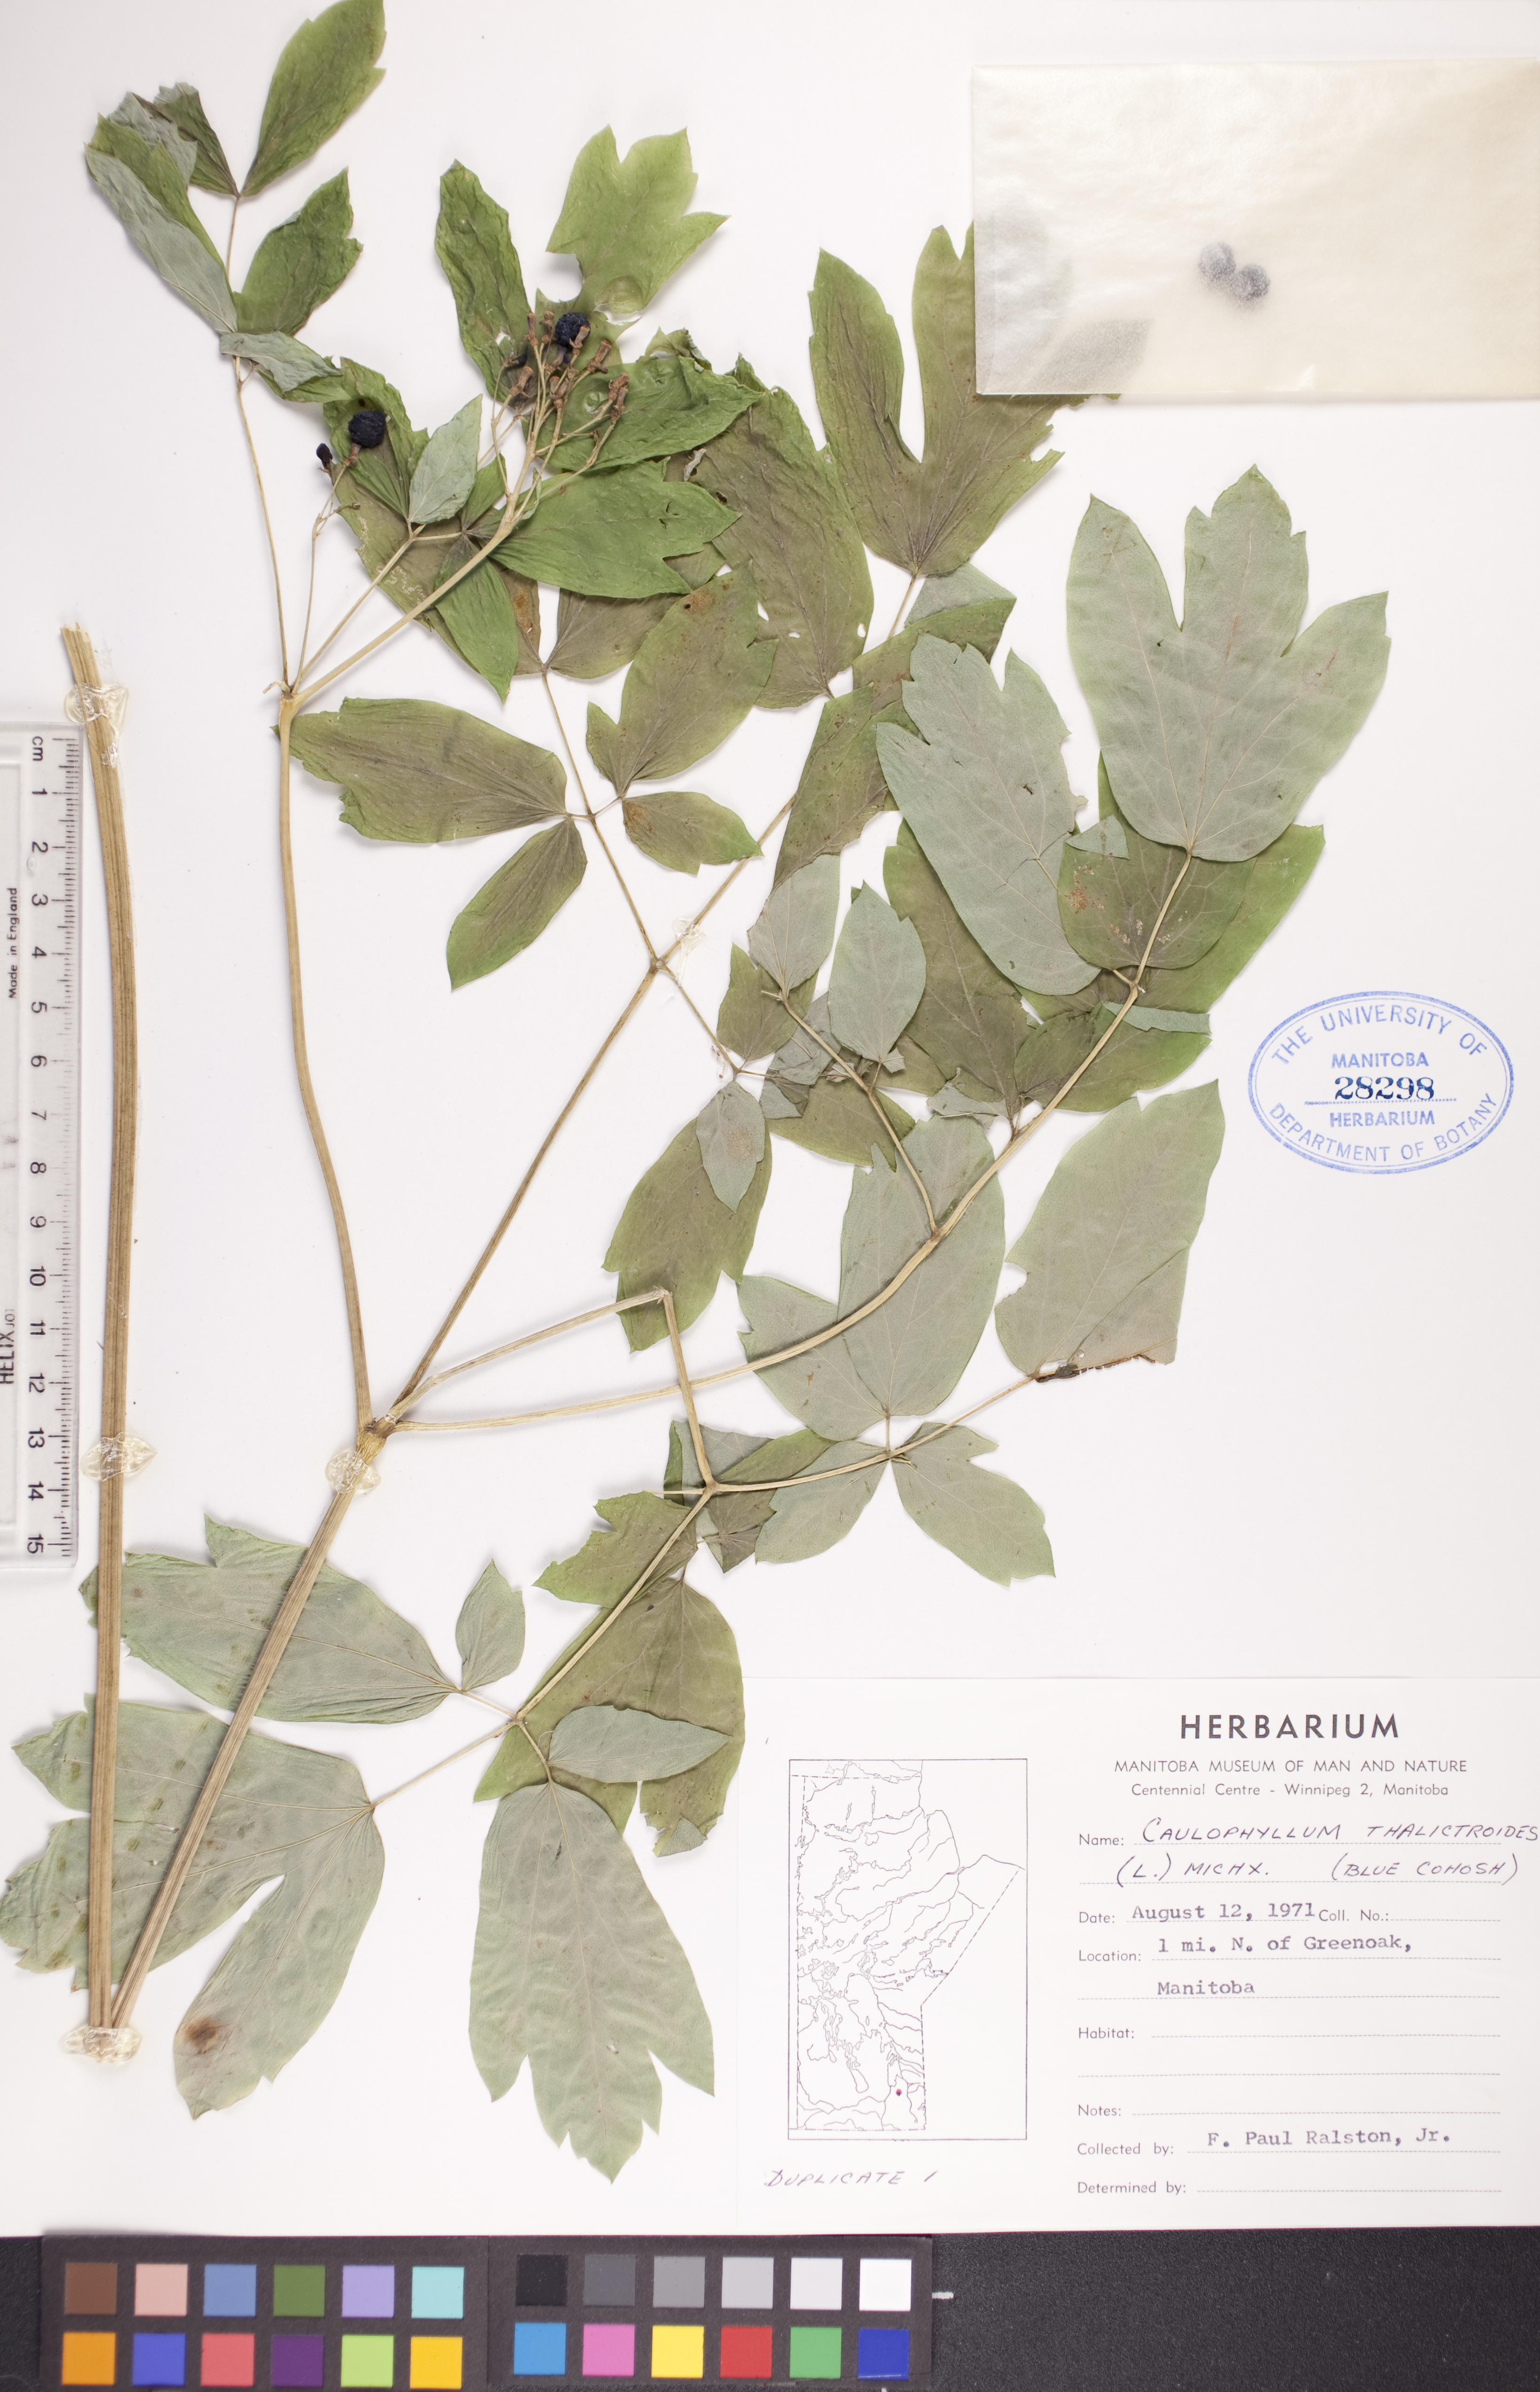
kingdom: Plantae
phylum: Tracheophyta
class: Magnoliopsida
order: Ranunculales
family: Berberidaceae
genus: Caulophyllum
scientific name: Caulophyllum thalictroides
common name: Blue cohosh
